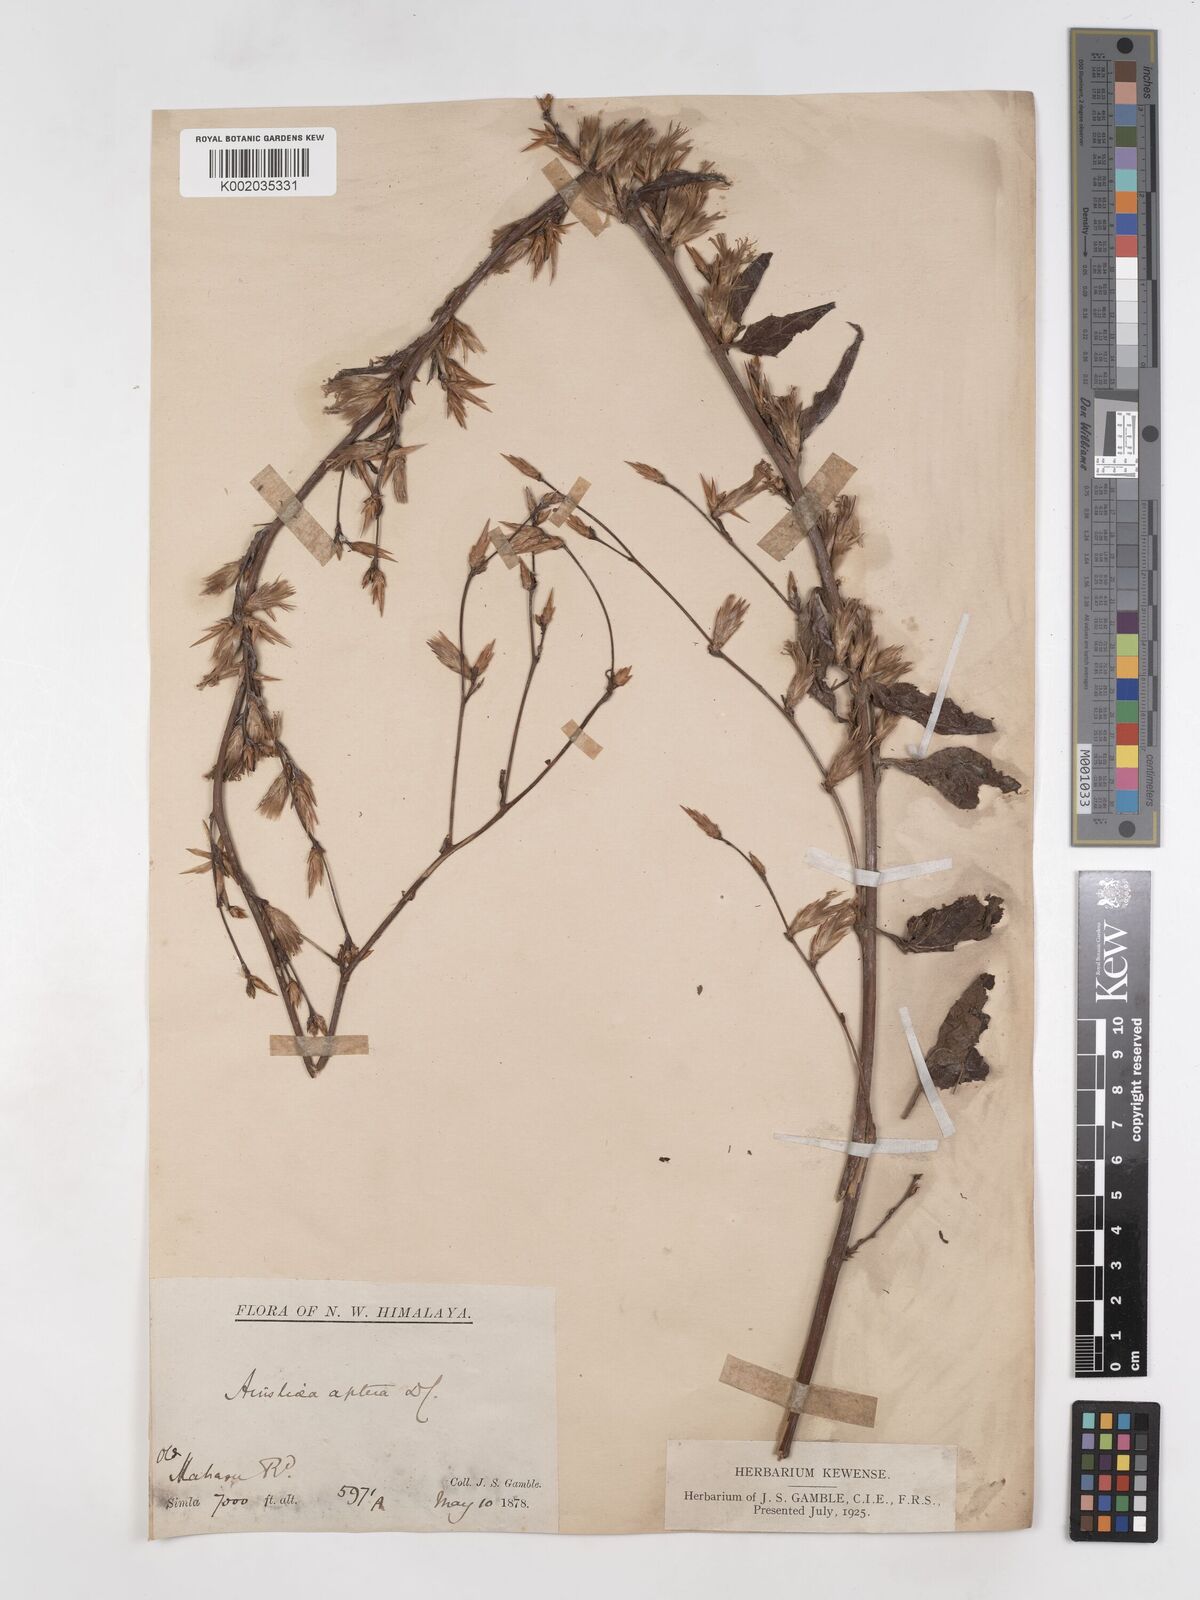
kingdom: Plantae
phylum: Tracheophyta
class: Magnoliopsida
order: Asterales
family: Asteraceae
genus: Ainsliaea
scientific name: Ainsliaea aptera
